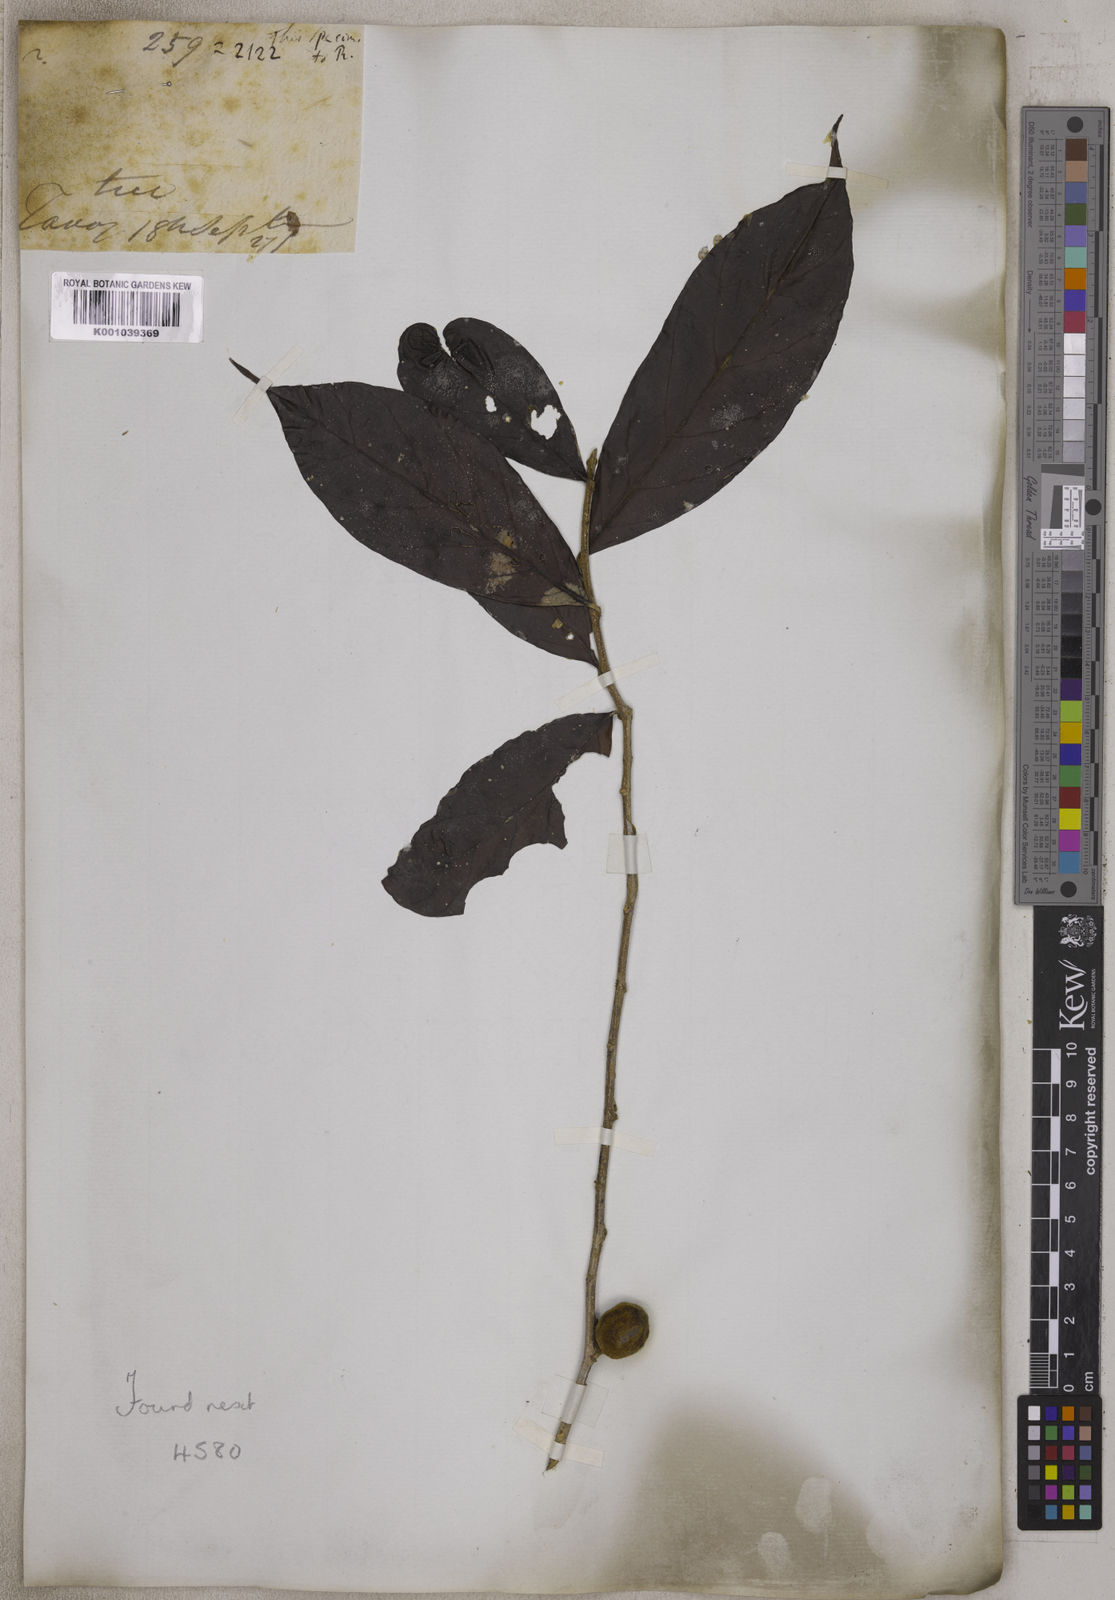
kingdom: Plantae
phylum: Tracheophyta
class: Magnoliopsida
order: Rosales
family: Moraceae
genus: Ficus
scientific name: Ficus
